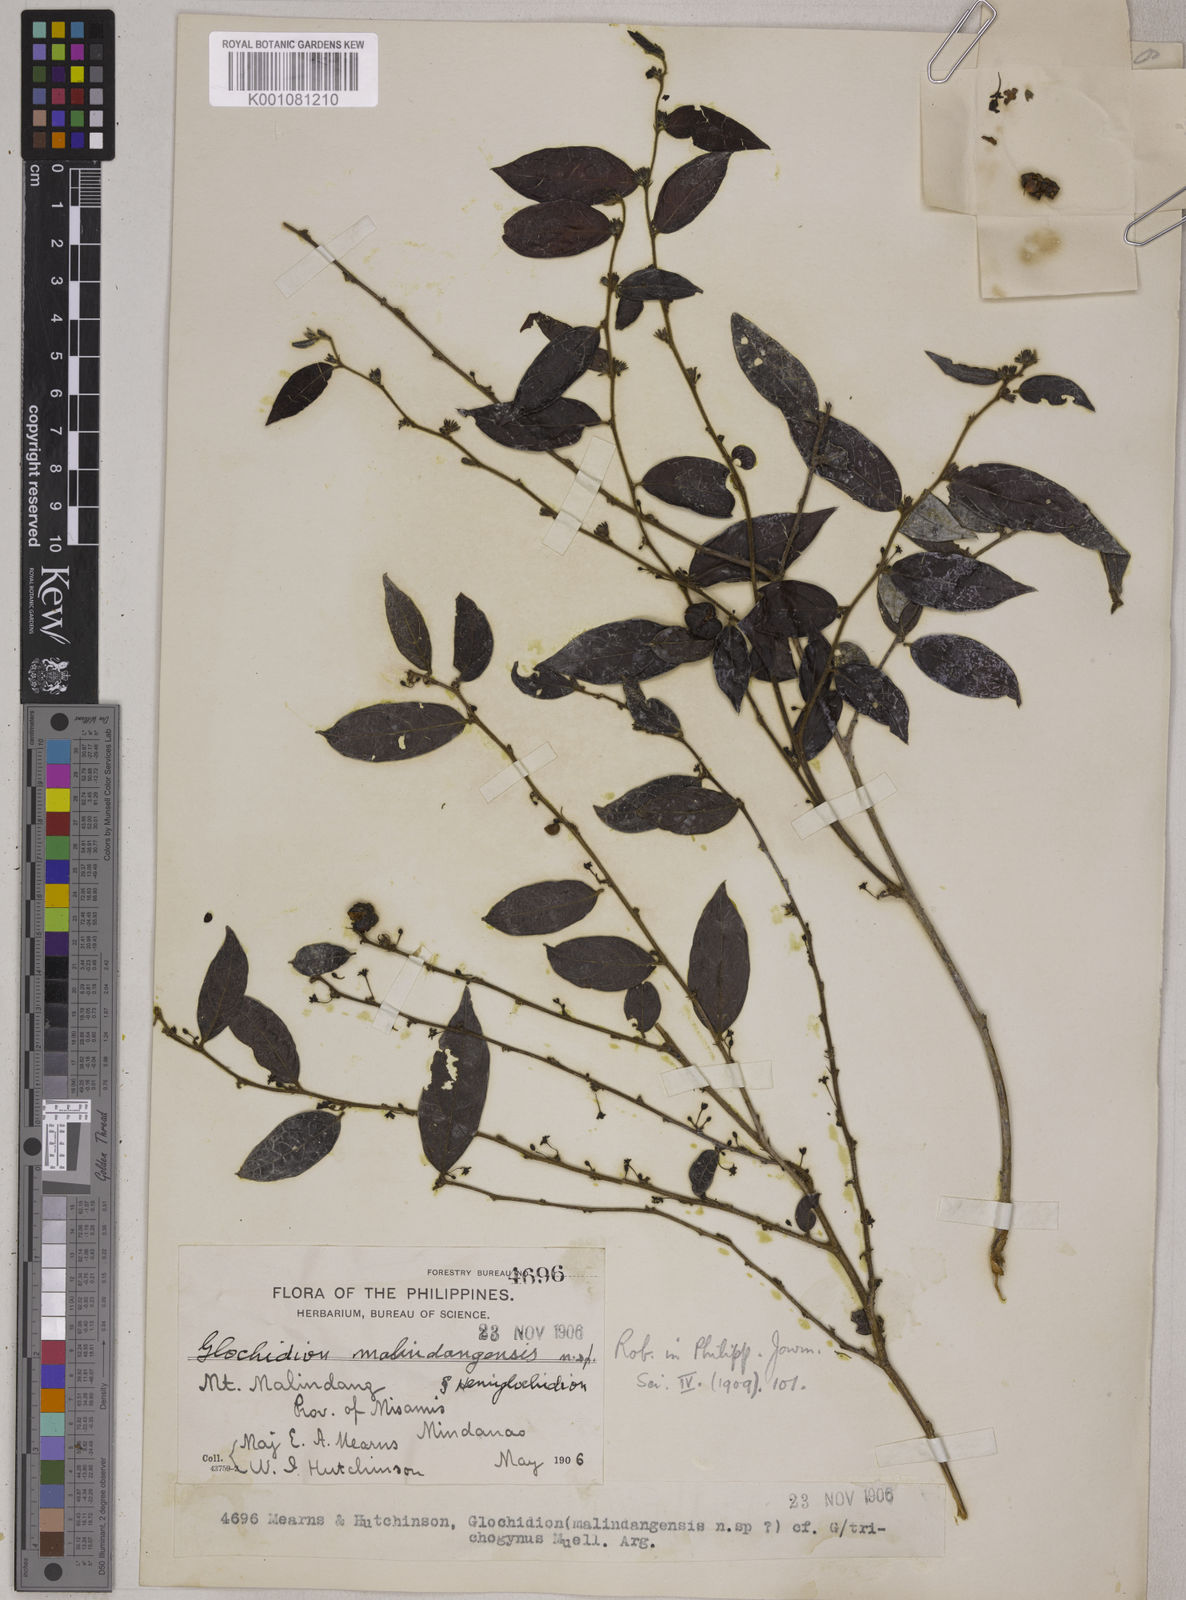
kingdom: Plantae
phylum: Tracheophyta
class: Magnoliopsida
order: Malpighiales
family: Phyllanthaceae
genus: Glochidion
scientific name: Glochidion malindangense
